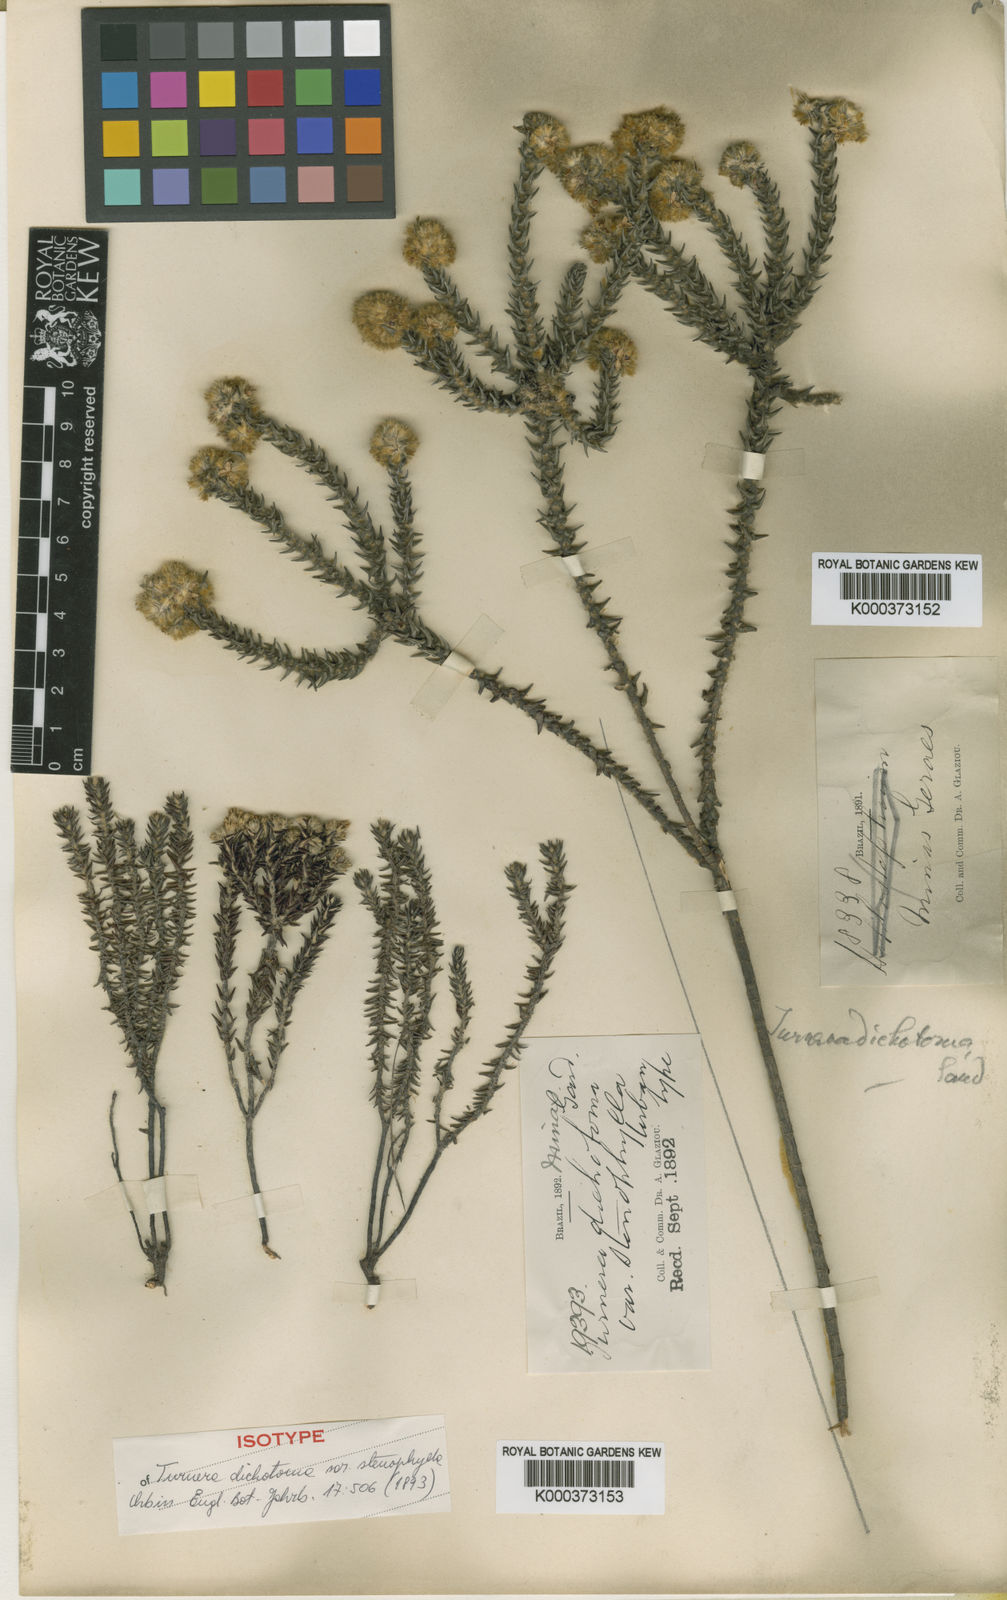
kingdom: Plantae
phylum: Tracheophyta
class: Magnoliopsida
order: Malpighiales
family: Turneraceae
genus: Turnera
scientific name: Turnera dichotoma
